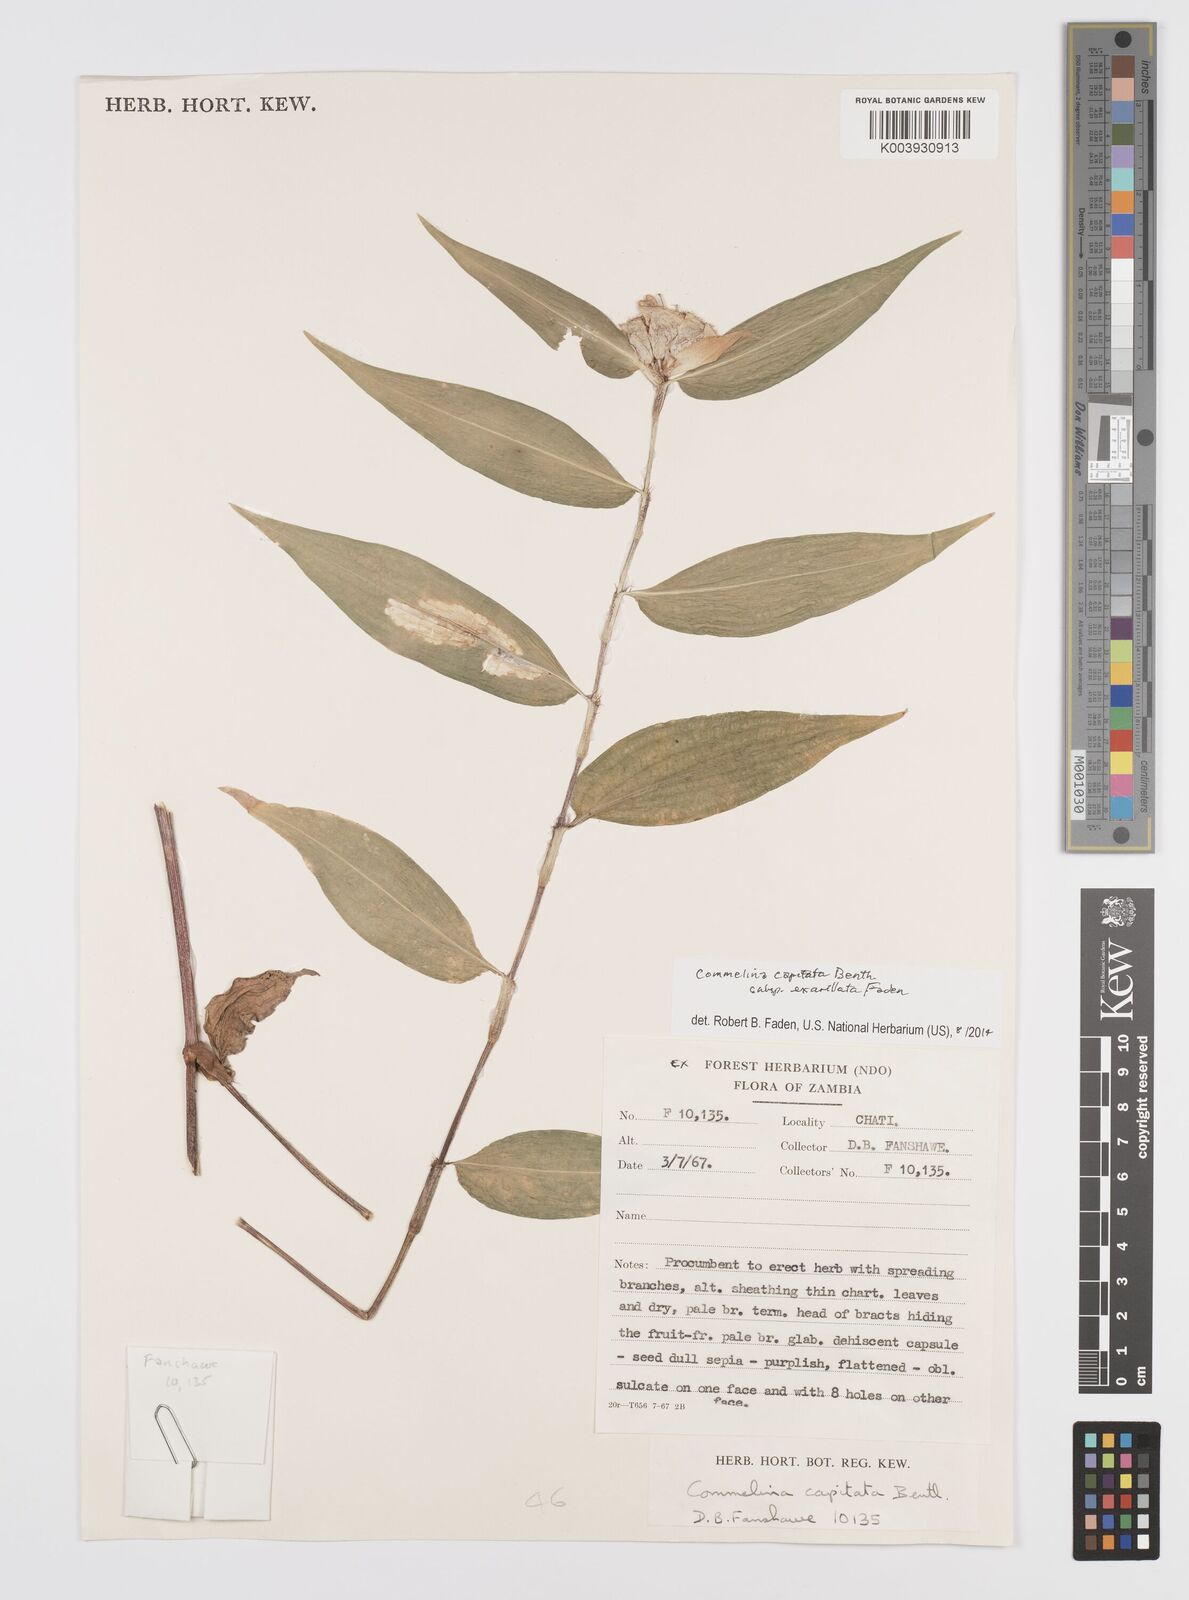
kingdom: Plantae
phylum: Tracheophyta
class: Liliopsida
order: Commelinales
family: Commelinaceae
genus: Commelina
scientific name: Commelina capitata
